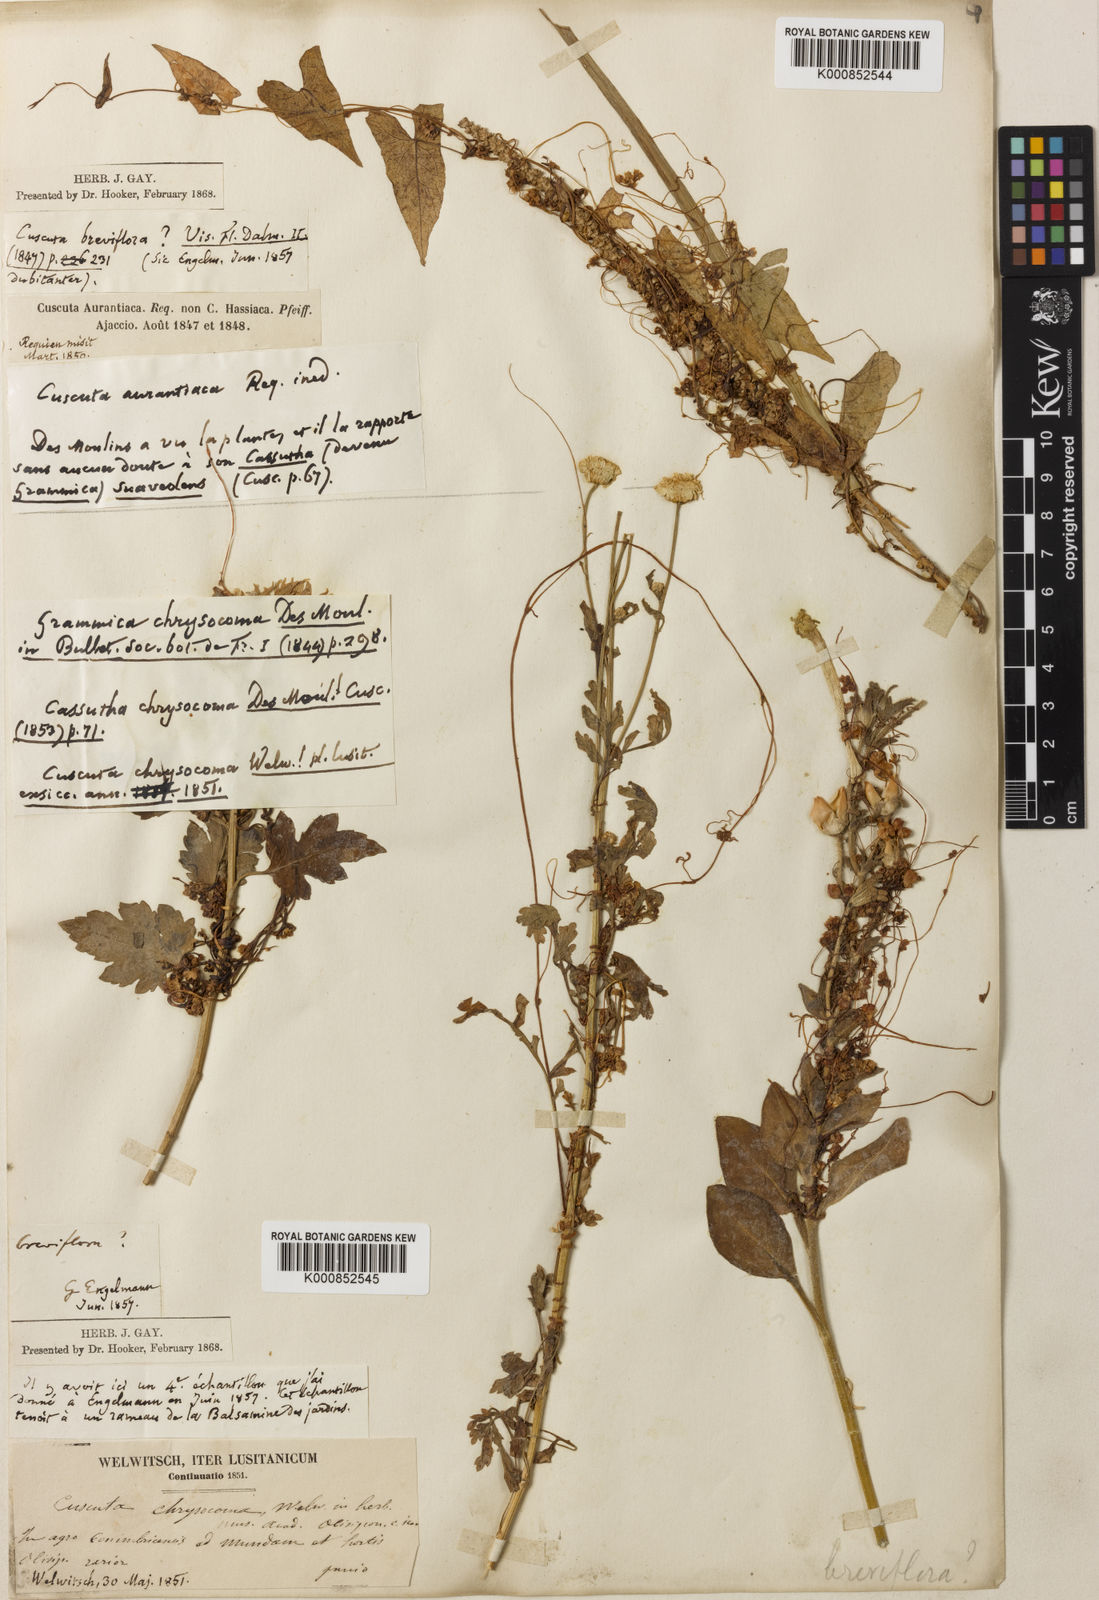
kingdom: Plantae
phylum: Tracheophyta
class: Magnoliopsida
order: Solanales
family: Convolvulaceae
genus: Cuscuta
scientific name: Cuscuta australis
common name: Australian dodder
